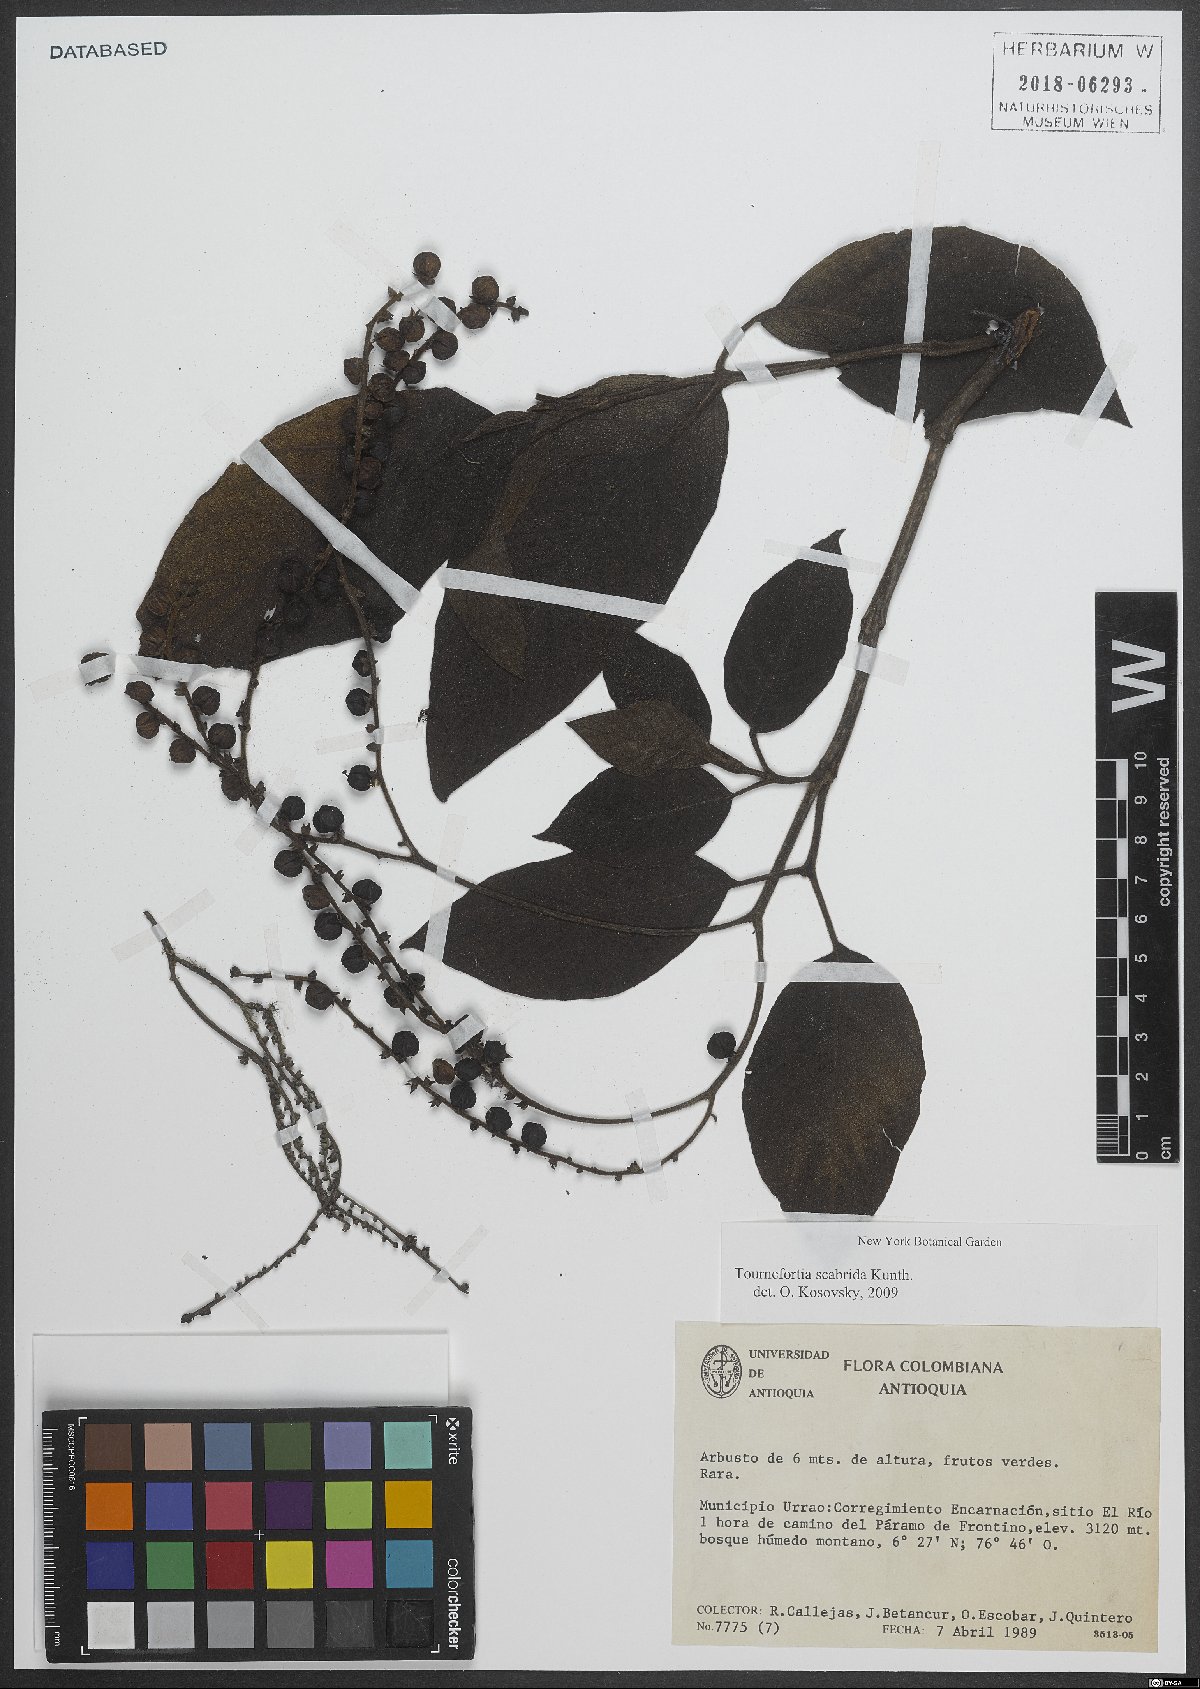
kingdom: Plantae
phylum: Tracheophyta
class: Magnoliopsida
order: Boraginales
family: Heliotropiaceae
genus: Heliotropium
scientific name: Heliotropium scabridum
